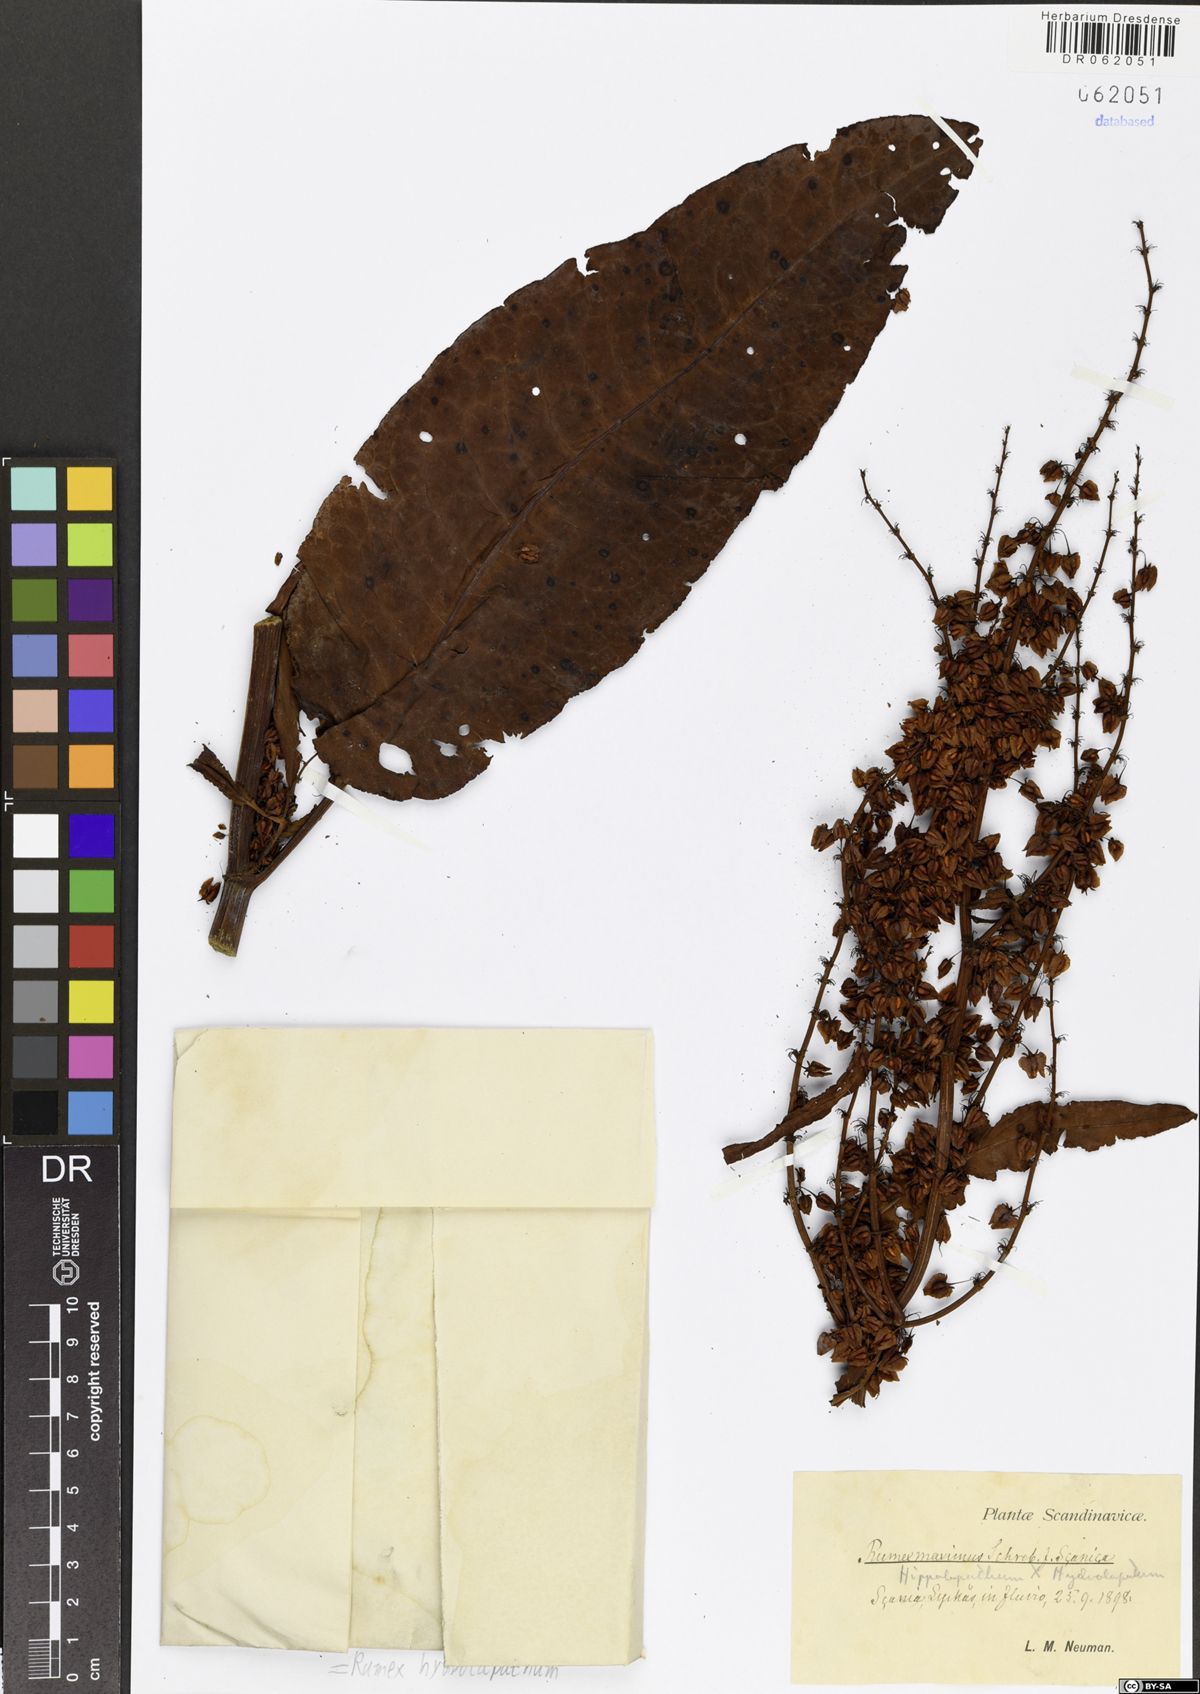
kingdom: Plantae
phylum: Tracheophyta
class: Magnoliopsida
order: Caryophyllales
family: Polygonaceae
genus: Rumex
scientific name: Rumex hydrolapathum
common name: Water dock
